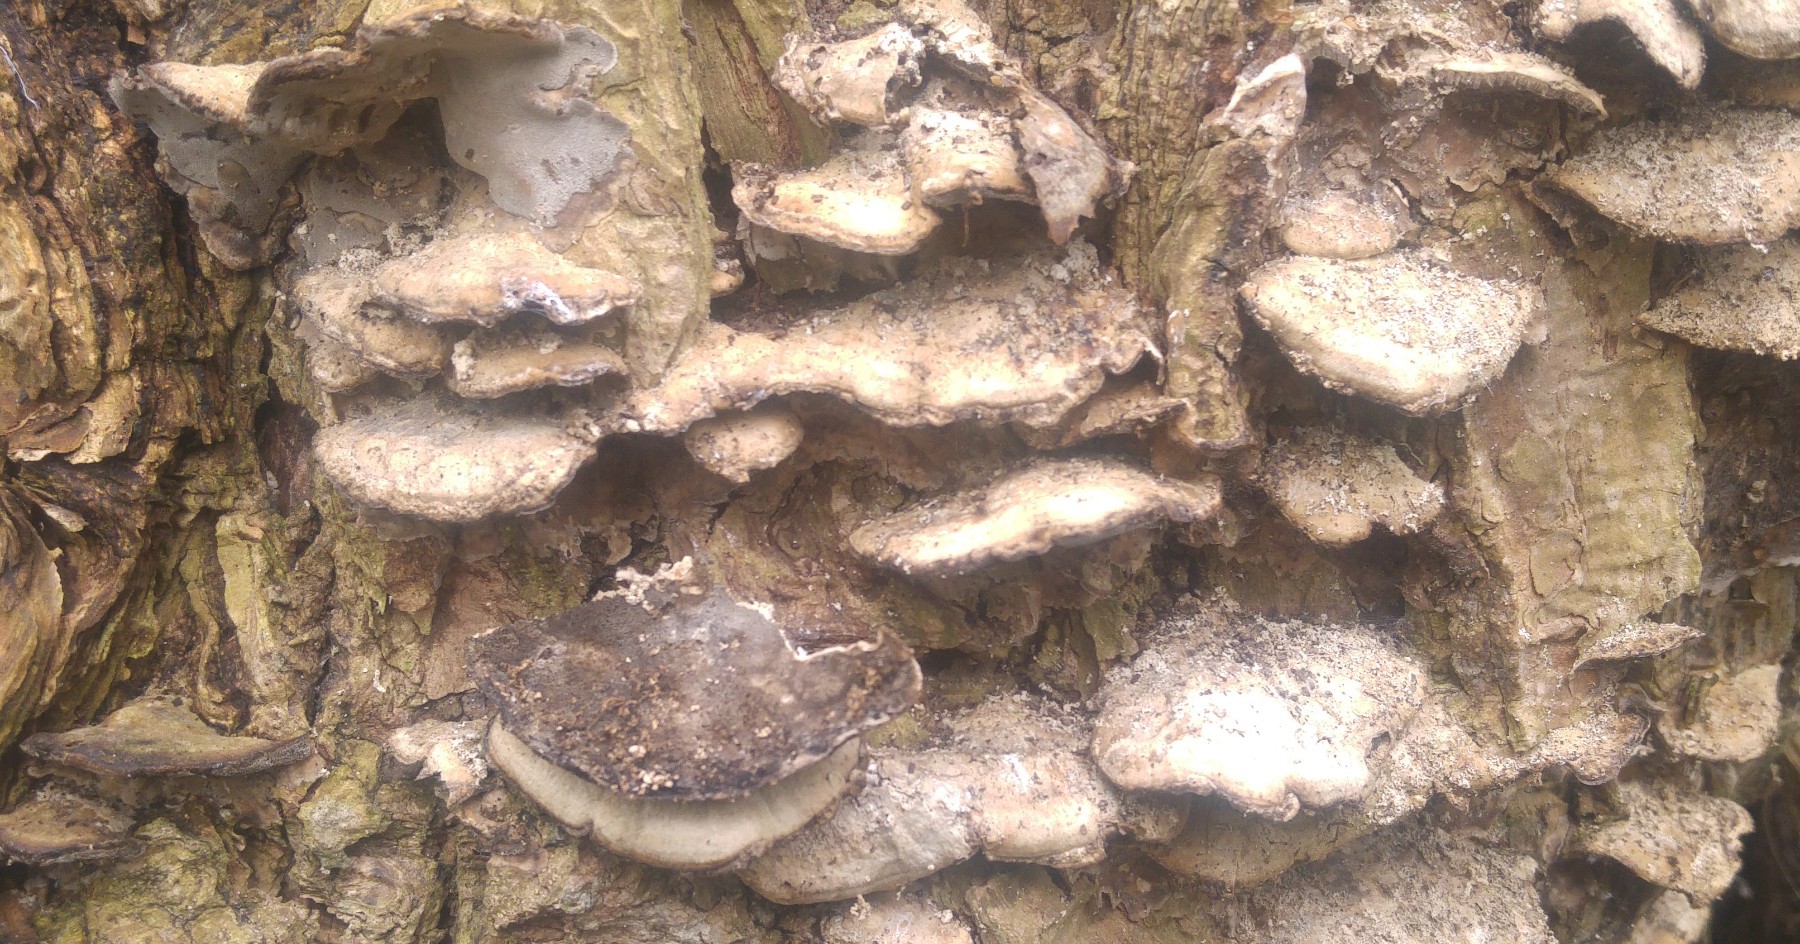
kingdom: Fungi
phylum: Basidiomycota
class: Agaricomycetes
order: Polyporales
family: Phanerochaetaceae
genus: Bjerkandera
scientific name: Bjerkandera fumosa
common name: grågul sodporesvamp
